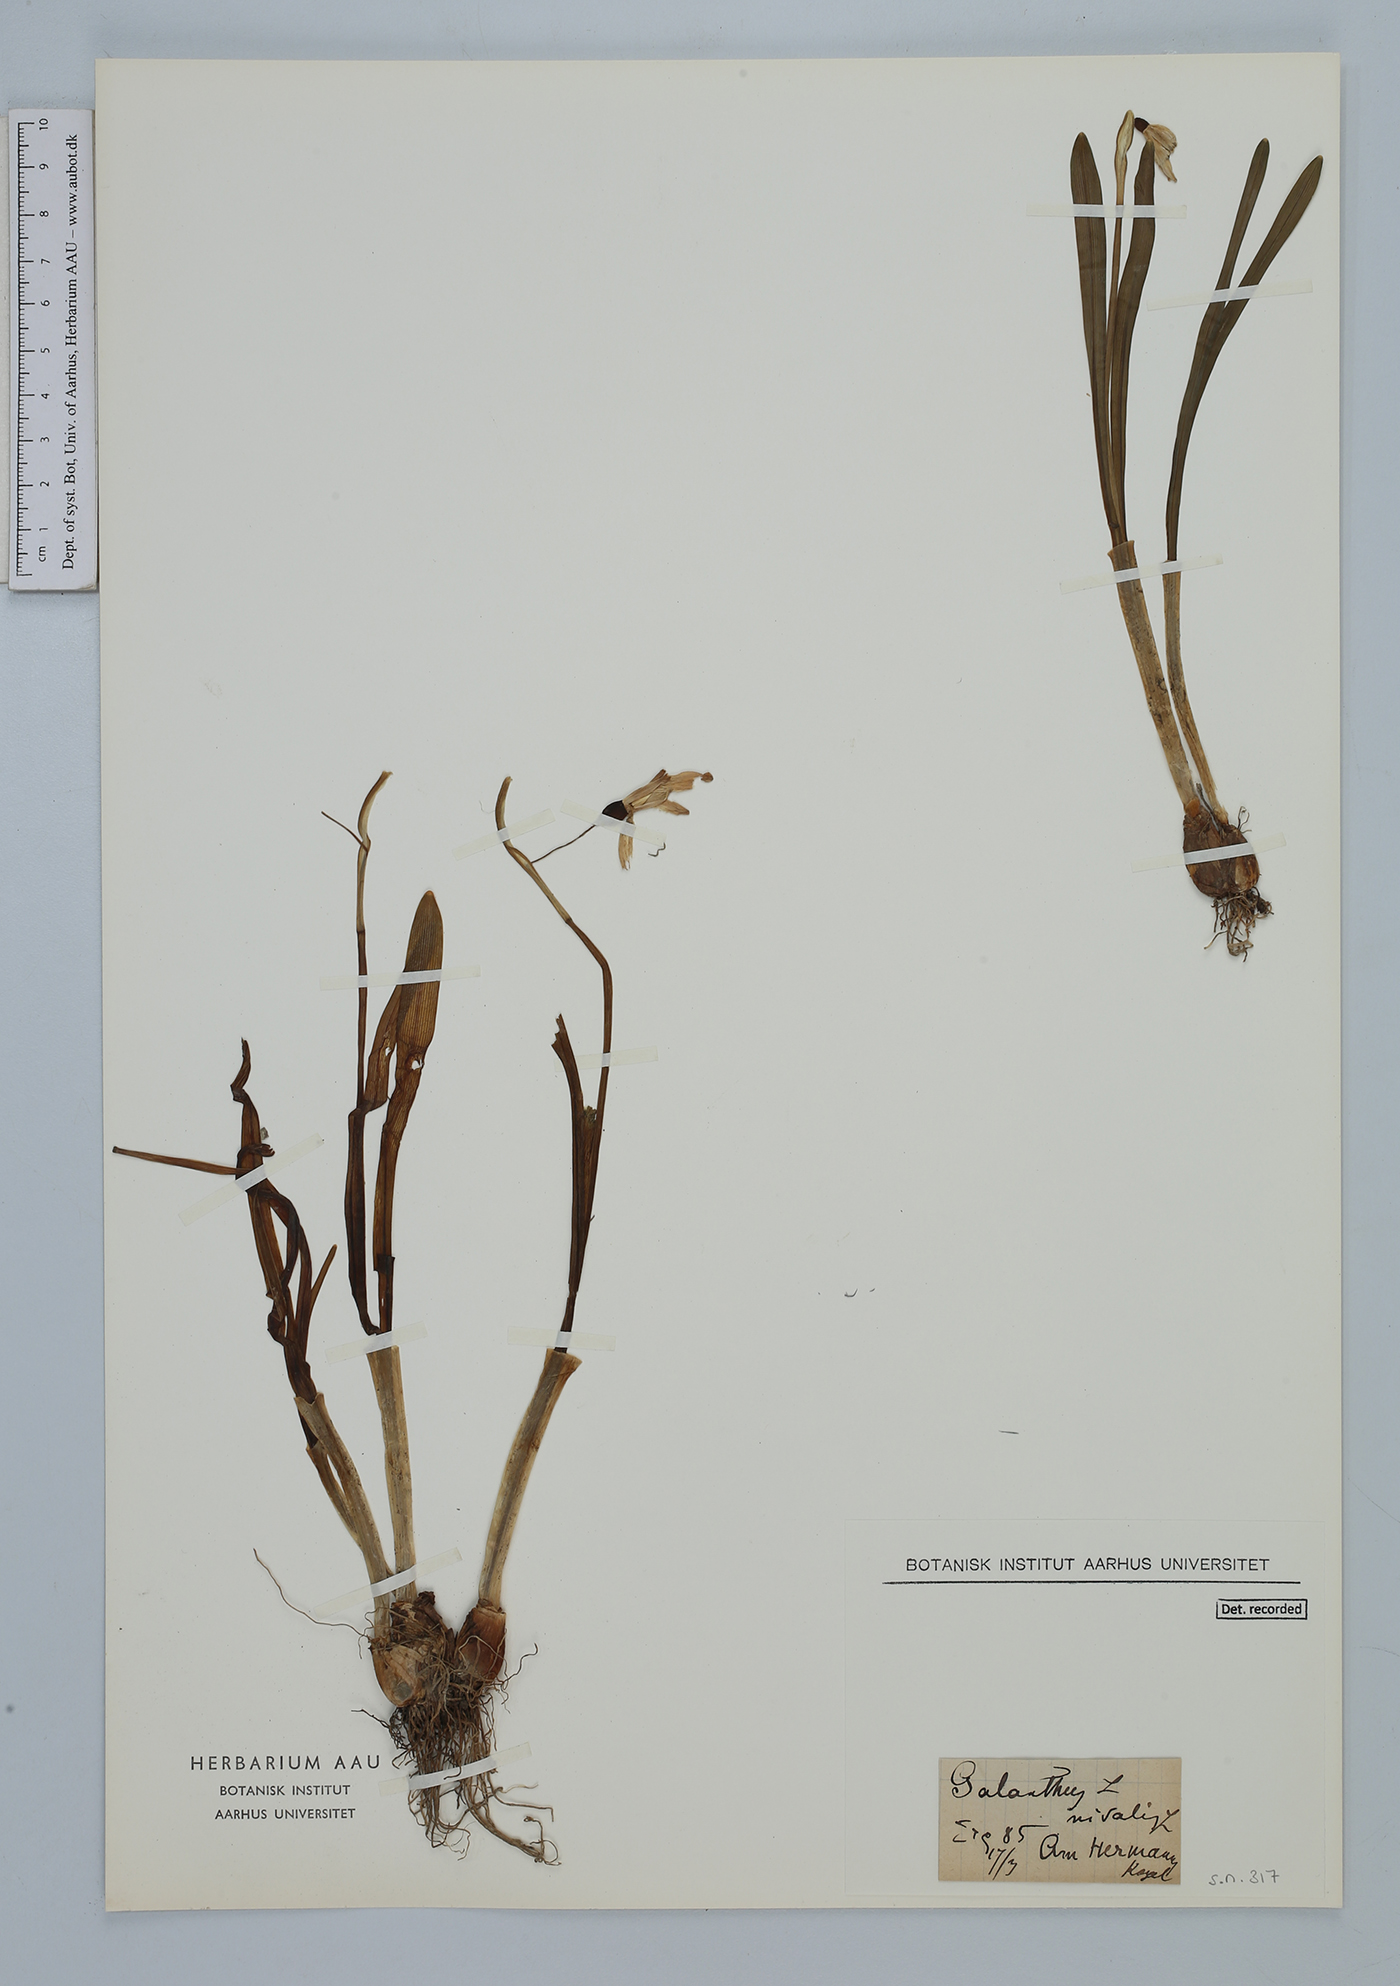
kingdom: Plantae
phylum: Tracheophyta
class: Liliopsida
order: Asparagales
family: Amaryllidaceae
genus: Galanthus
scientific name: Galanthus nivalis
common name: Snowdrop
